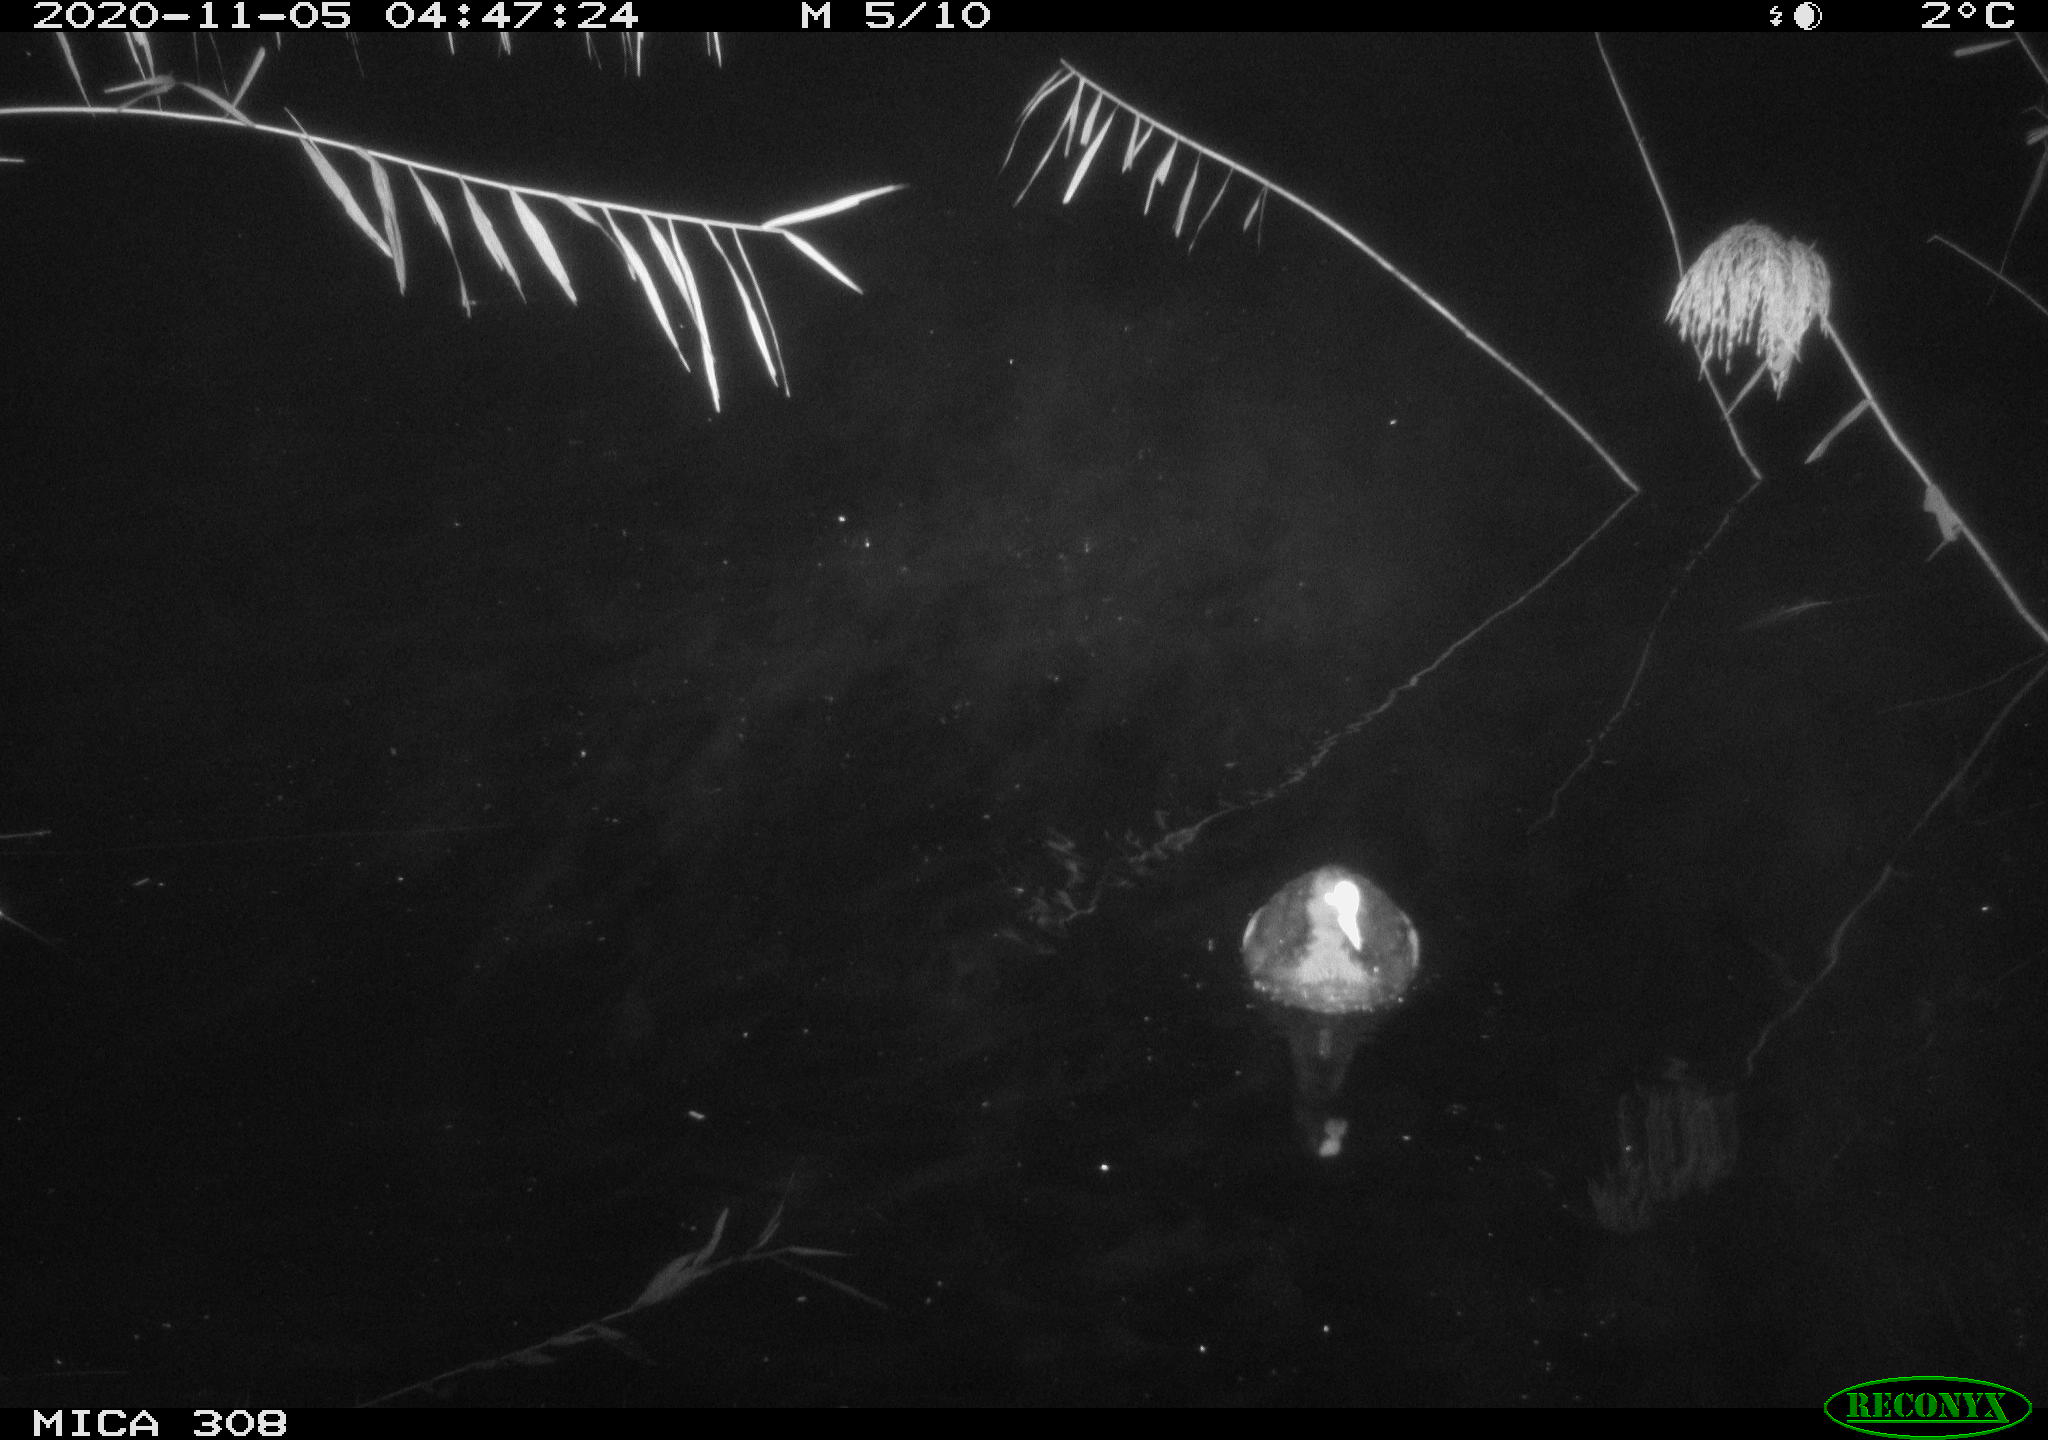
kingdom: Animalia
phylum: Chordata
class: Aves
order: Gruiformes
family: Rallidae
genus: Fulica
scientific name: Fulica atra
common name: Eurasian coot
